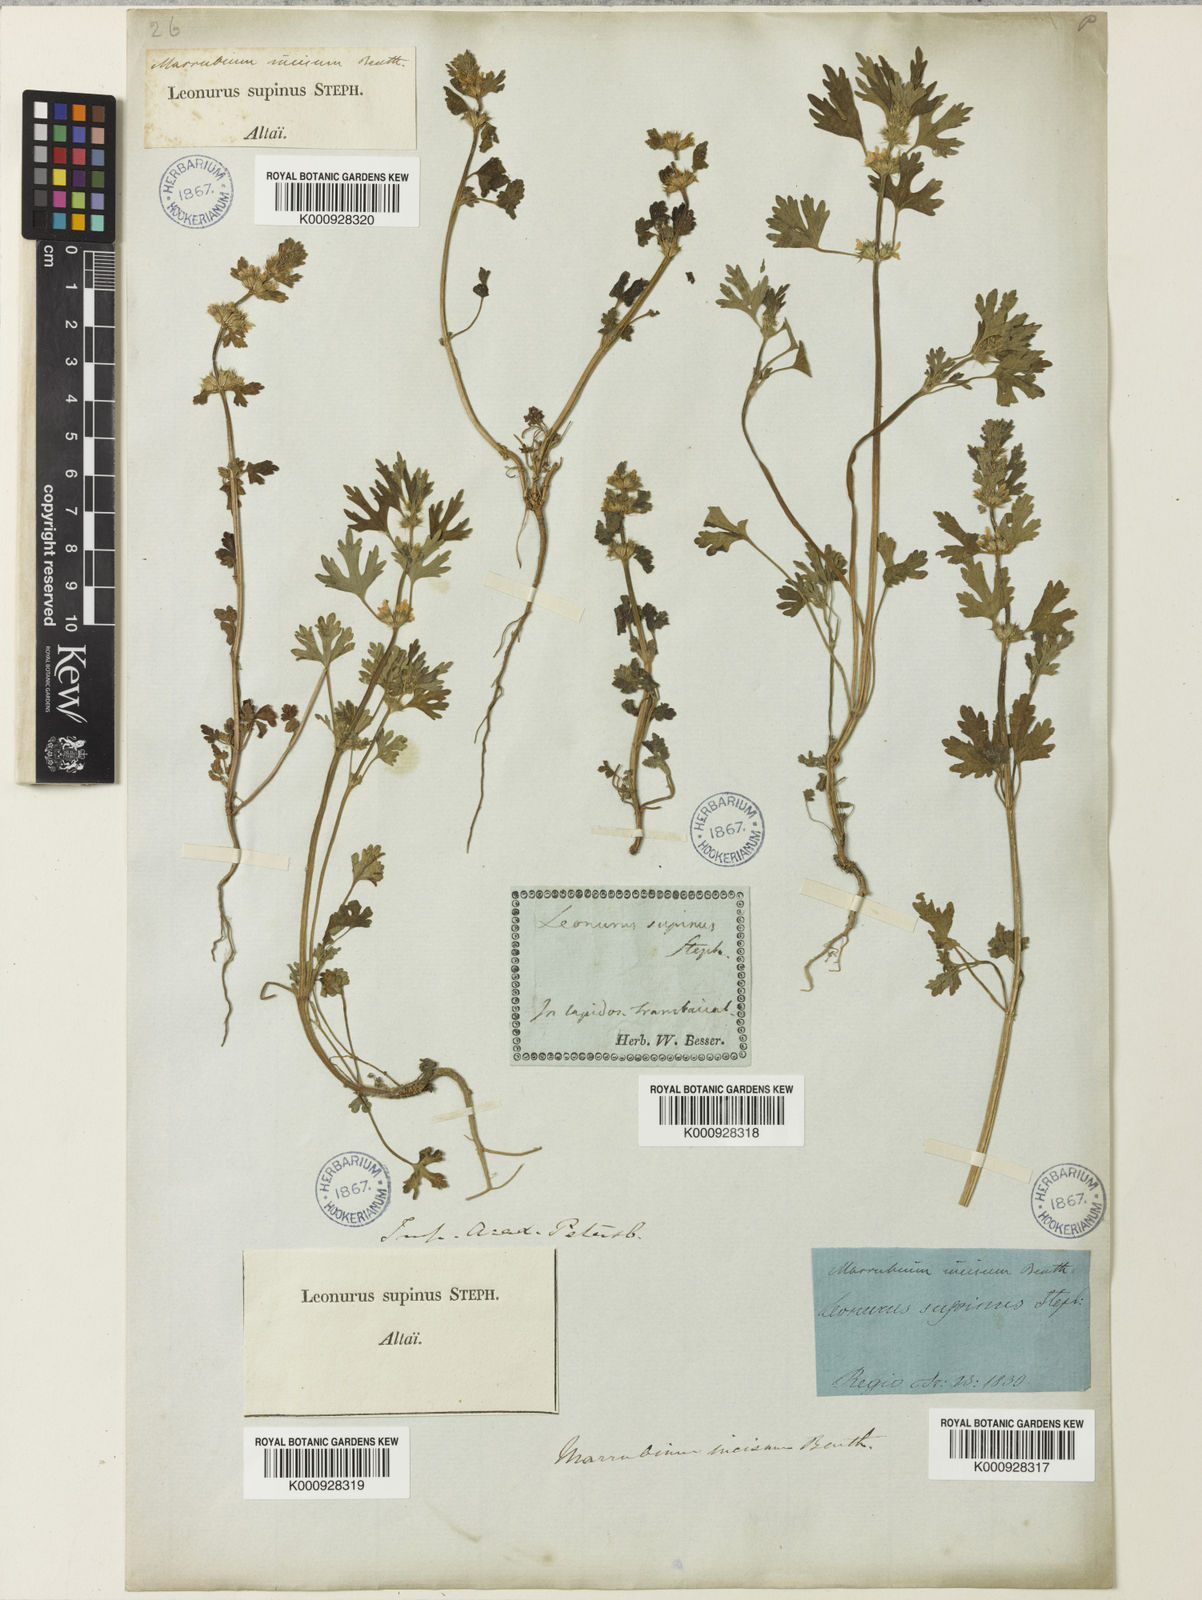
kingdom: Plantae
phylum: Tracheophyta
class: Magnoliopsida
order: Lamiales
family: Lamiaceae
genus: Lagopsis
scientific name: Lagopsis supina
